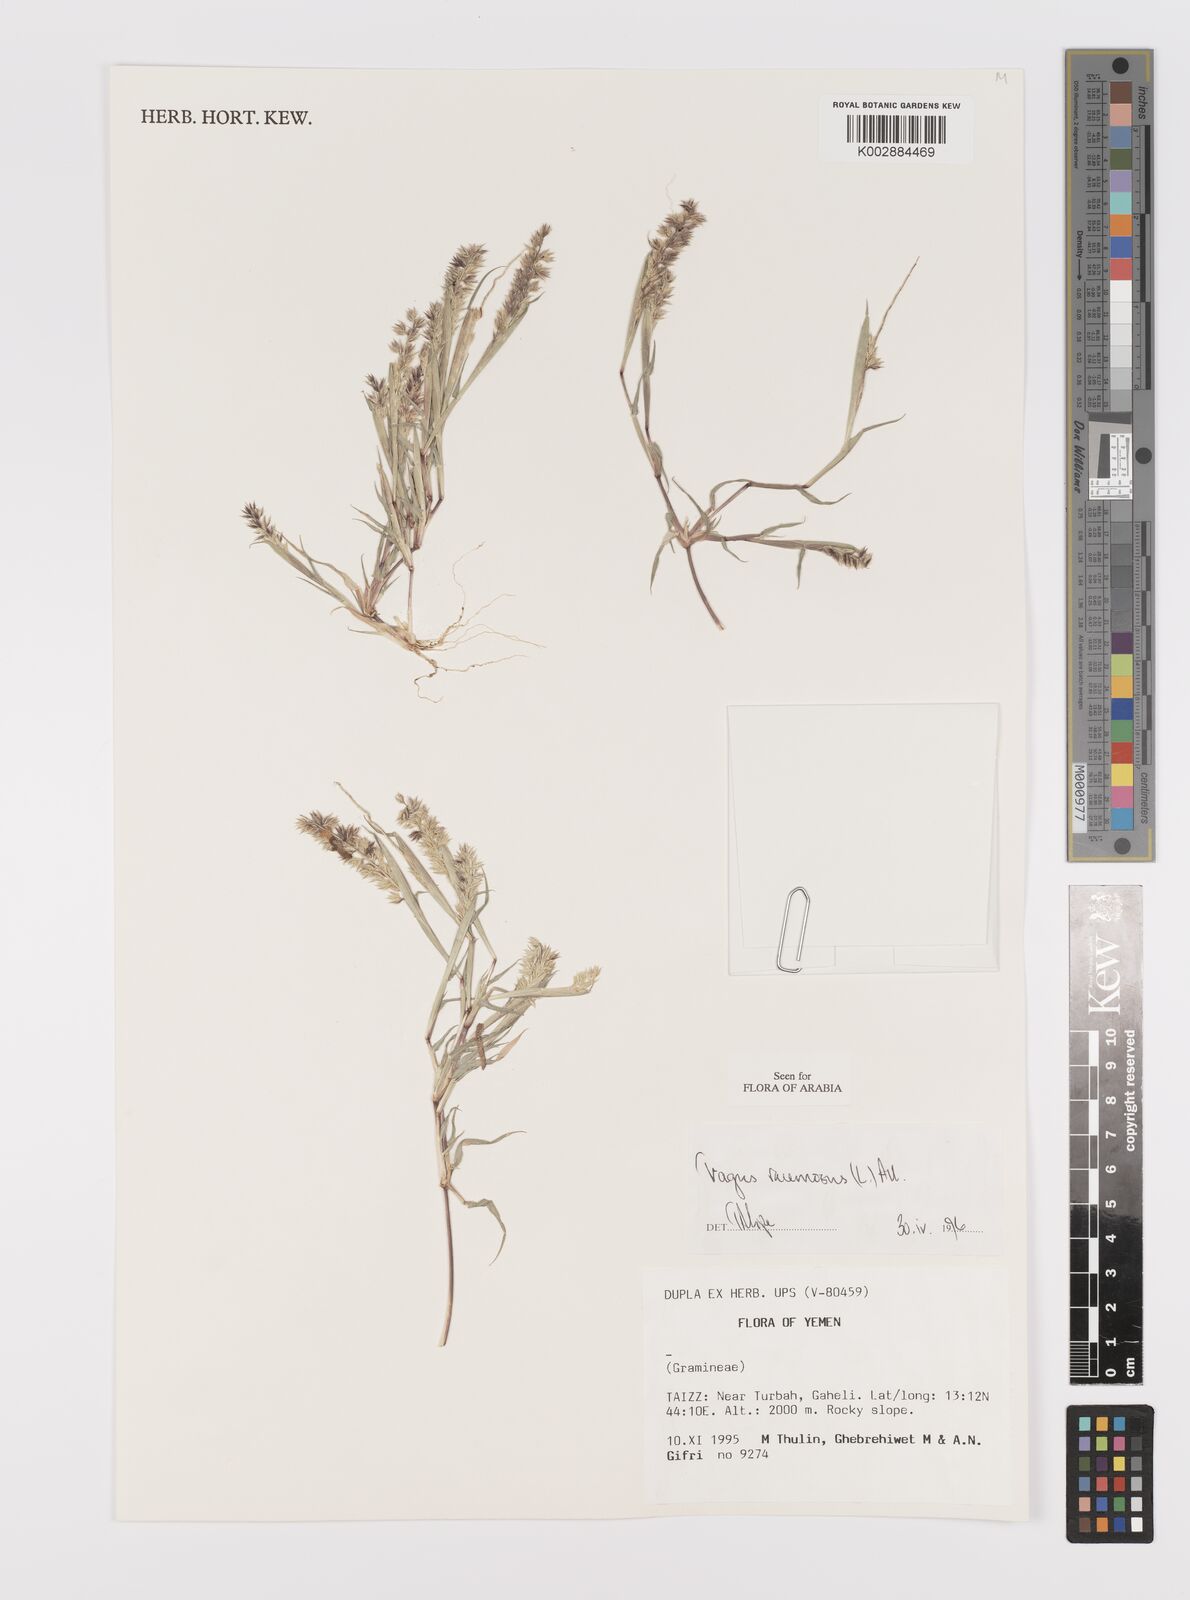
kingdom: Plantae
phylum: Tracheophyta
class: Liliopsida
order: Poales
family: Poaceae
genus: Tragus
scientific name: Tragus racemosus
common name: European bur-grass
